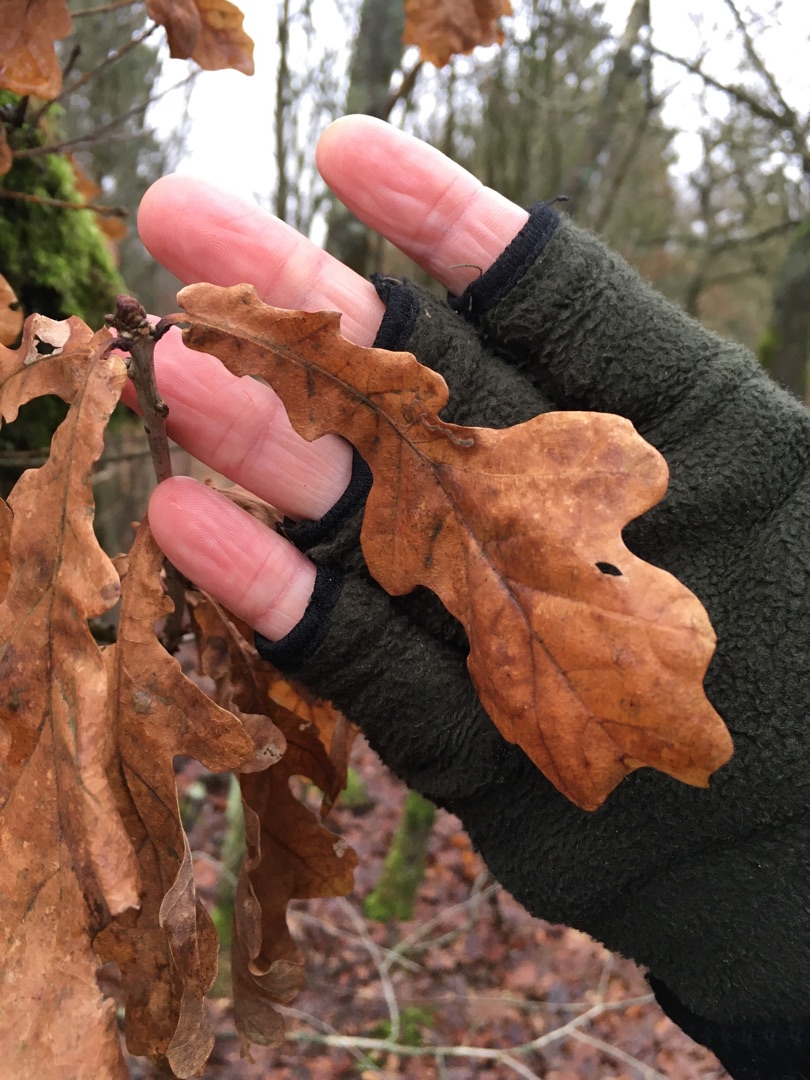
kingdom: Plantae
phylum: Tracheophyta
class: Magnoliopsida
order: Fagales
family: Fagaceae
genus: Quercus
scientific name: Quercus robur
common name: Stilk-eg/almindelig eg
